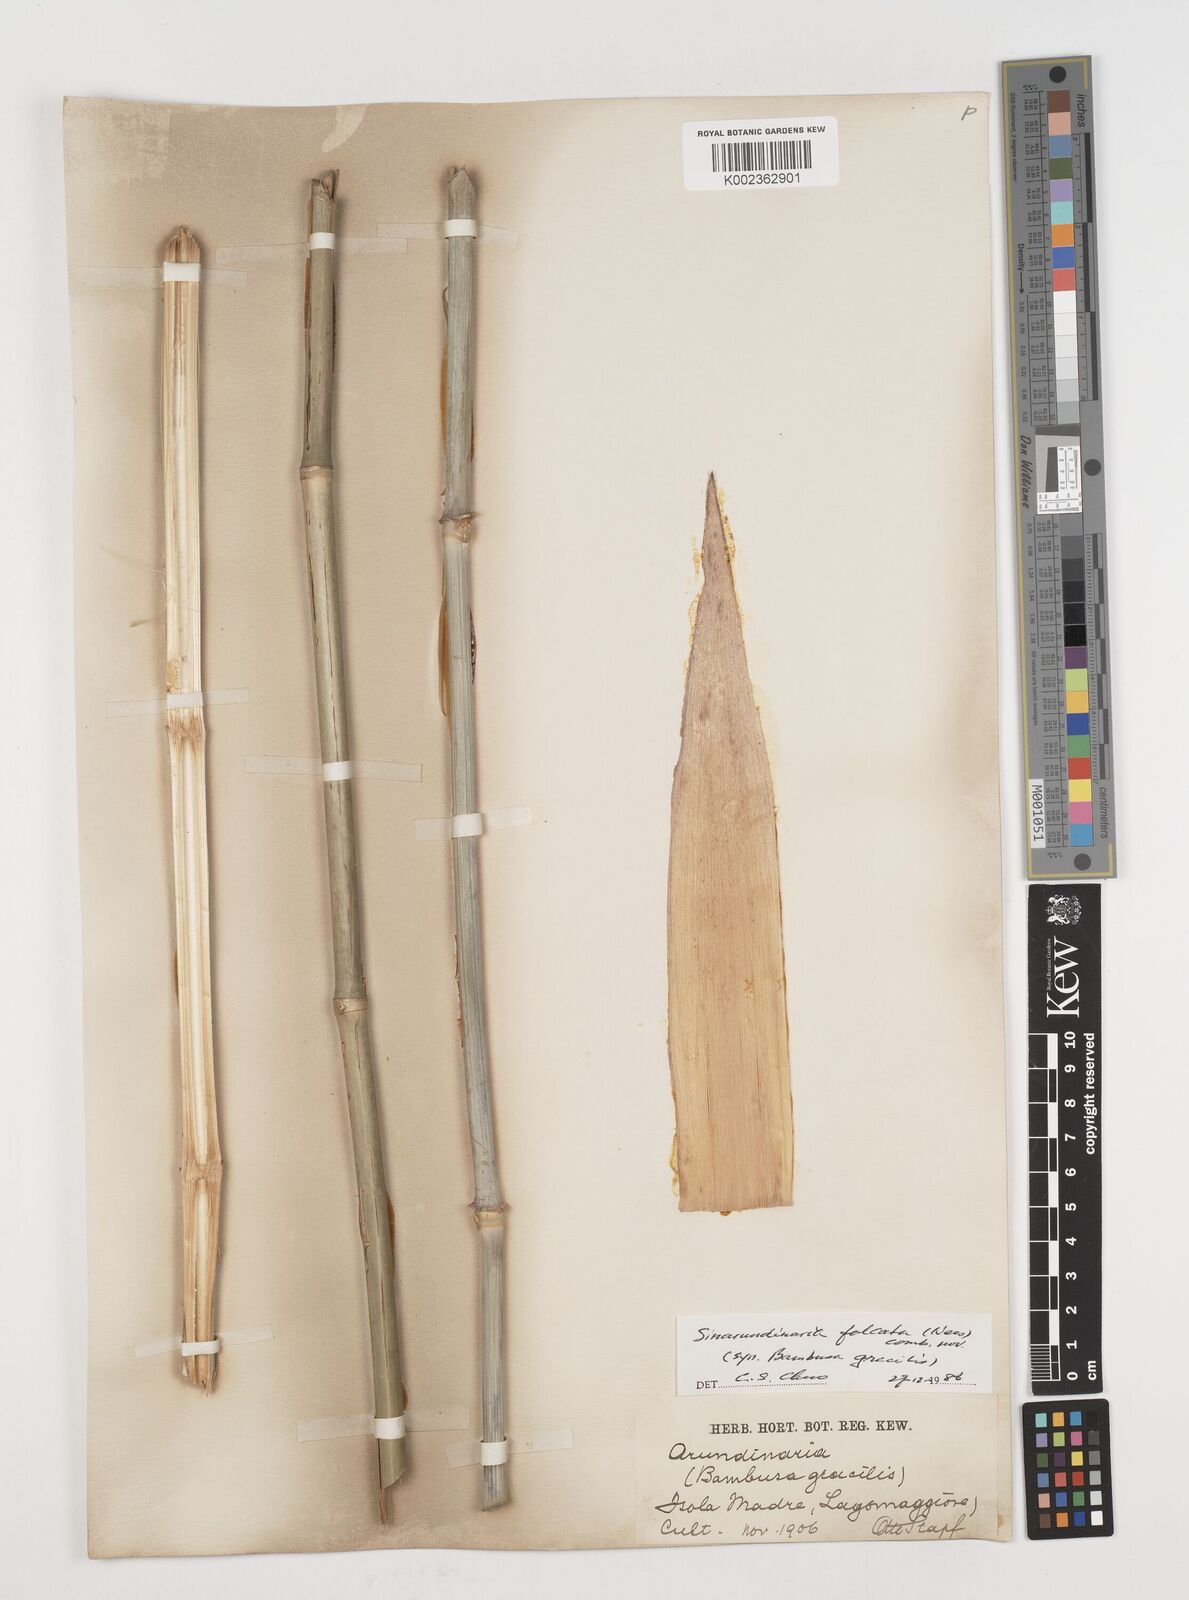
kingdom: Plantae
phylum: Tracheophyta
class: Liliopsida
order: Poales
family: Poaceae
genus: Drepanostachyum
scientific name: Drepanostachyum
